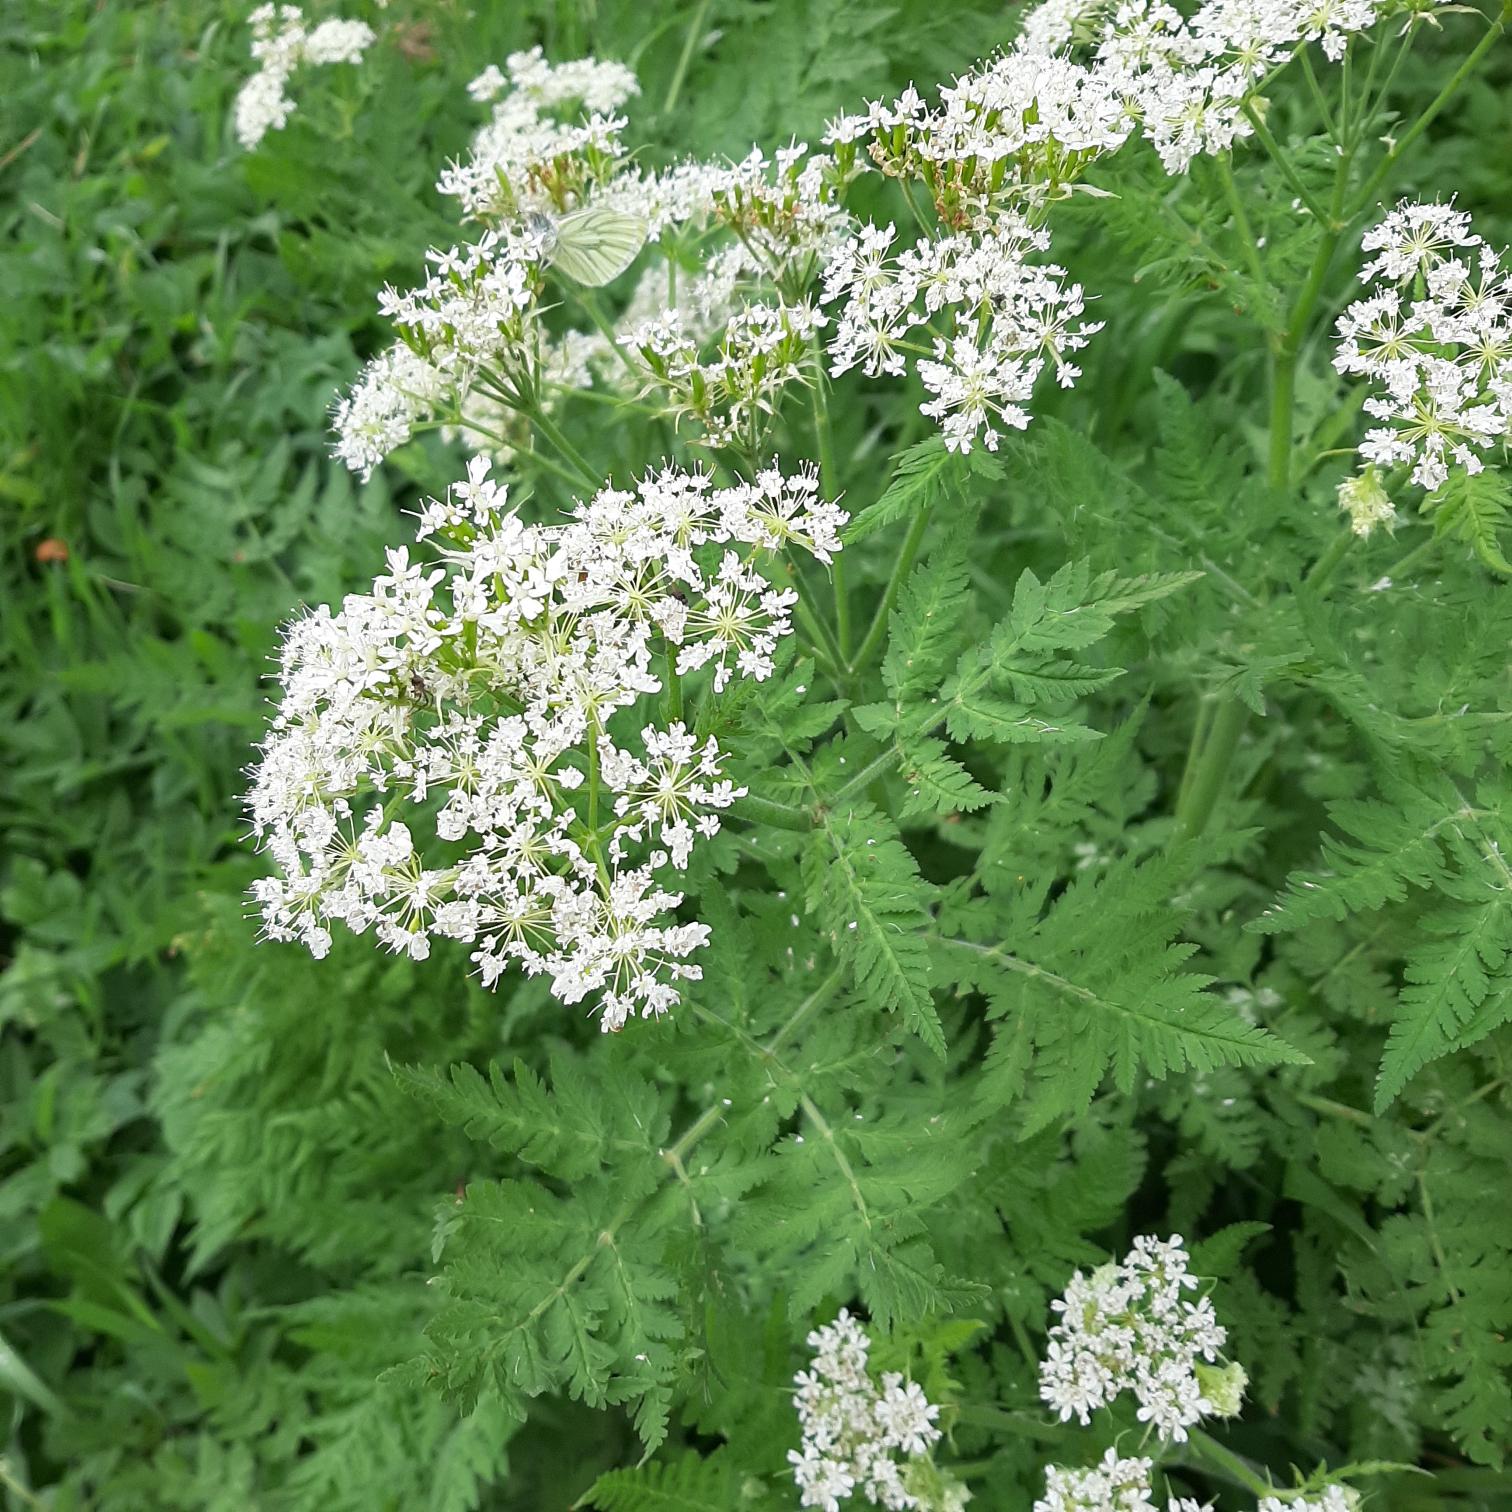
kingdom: Plantae
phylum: Tracheophyta
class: Magnoliopsida
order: Apiales
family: Apiaceae
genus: Myrrhis
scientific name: Myrrhis odorata
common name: Sødskærm
